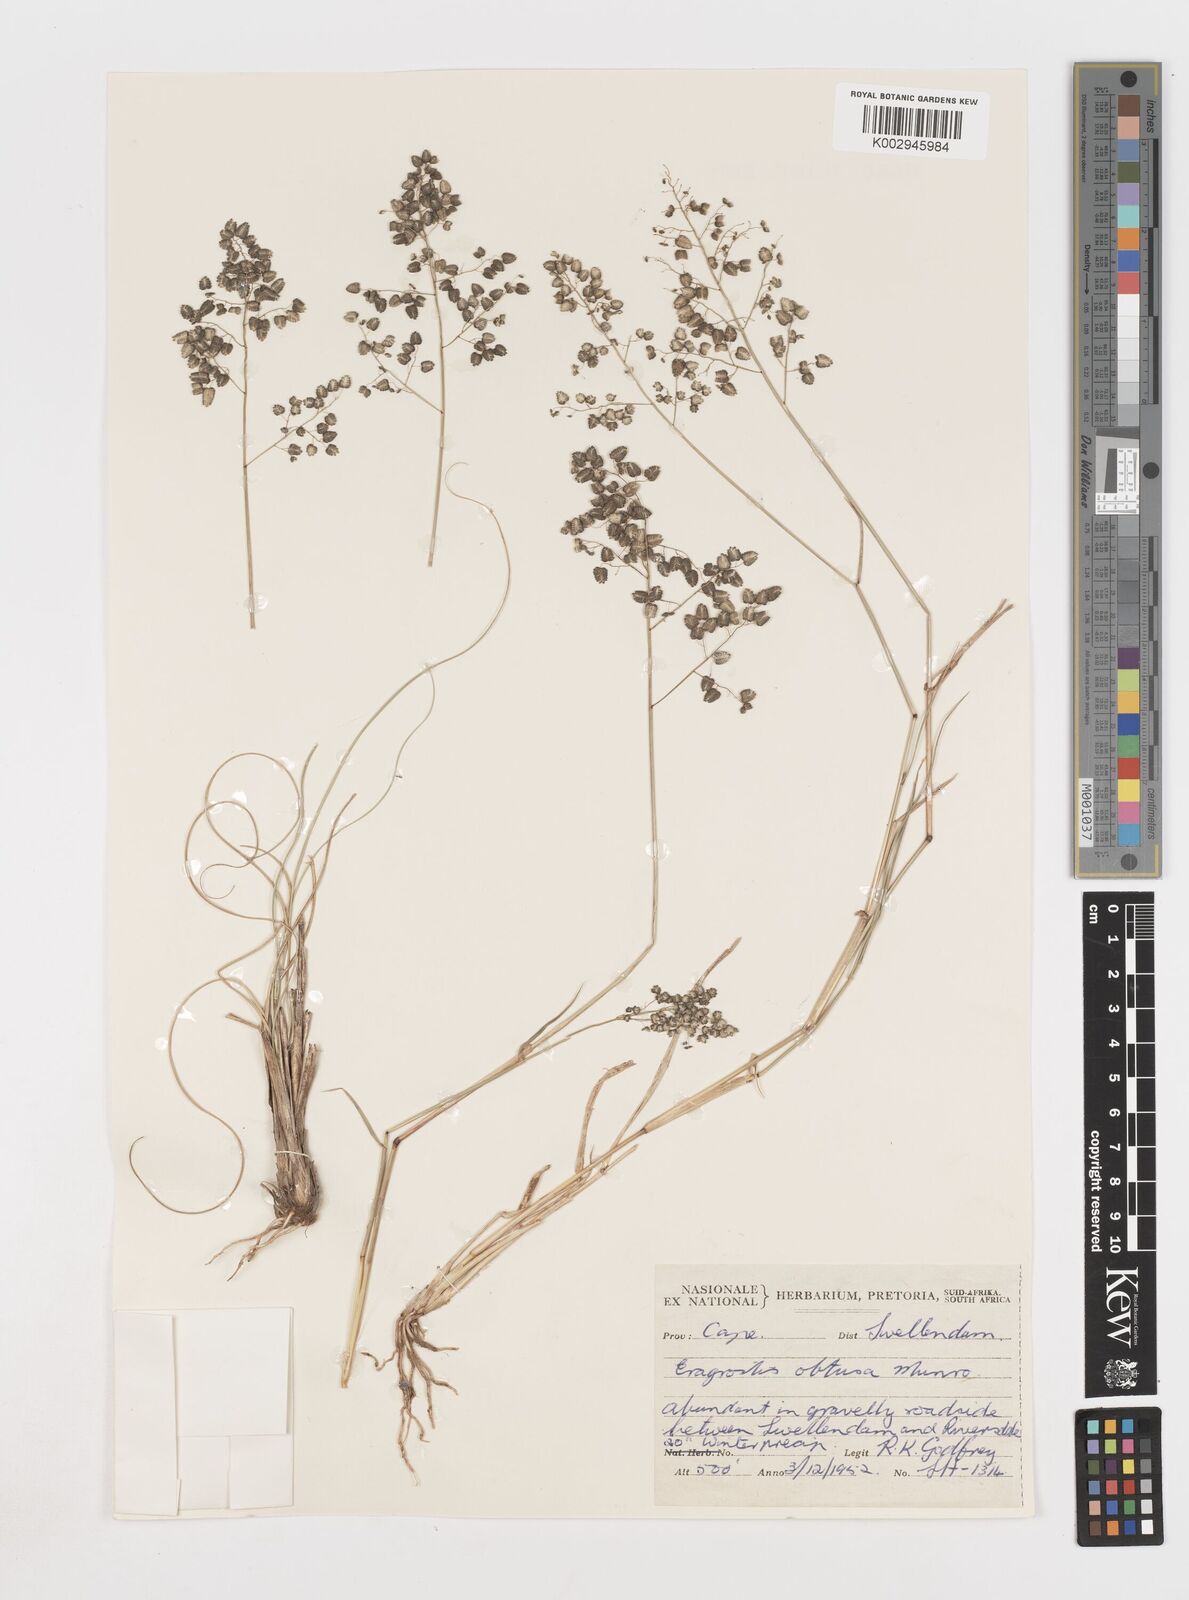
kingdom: Plantae
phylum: Tracheophyta
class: Liliopsida
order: Poales
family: Poaceae
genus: Eragrostis
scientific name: Eragrostis obtusa
